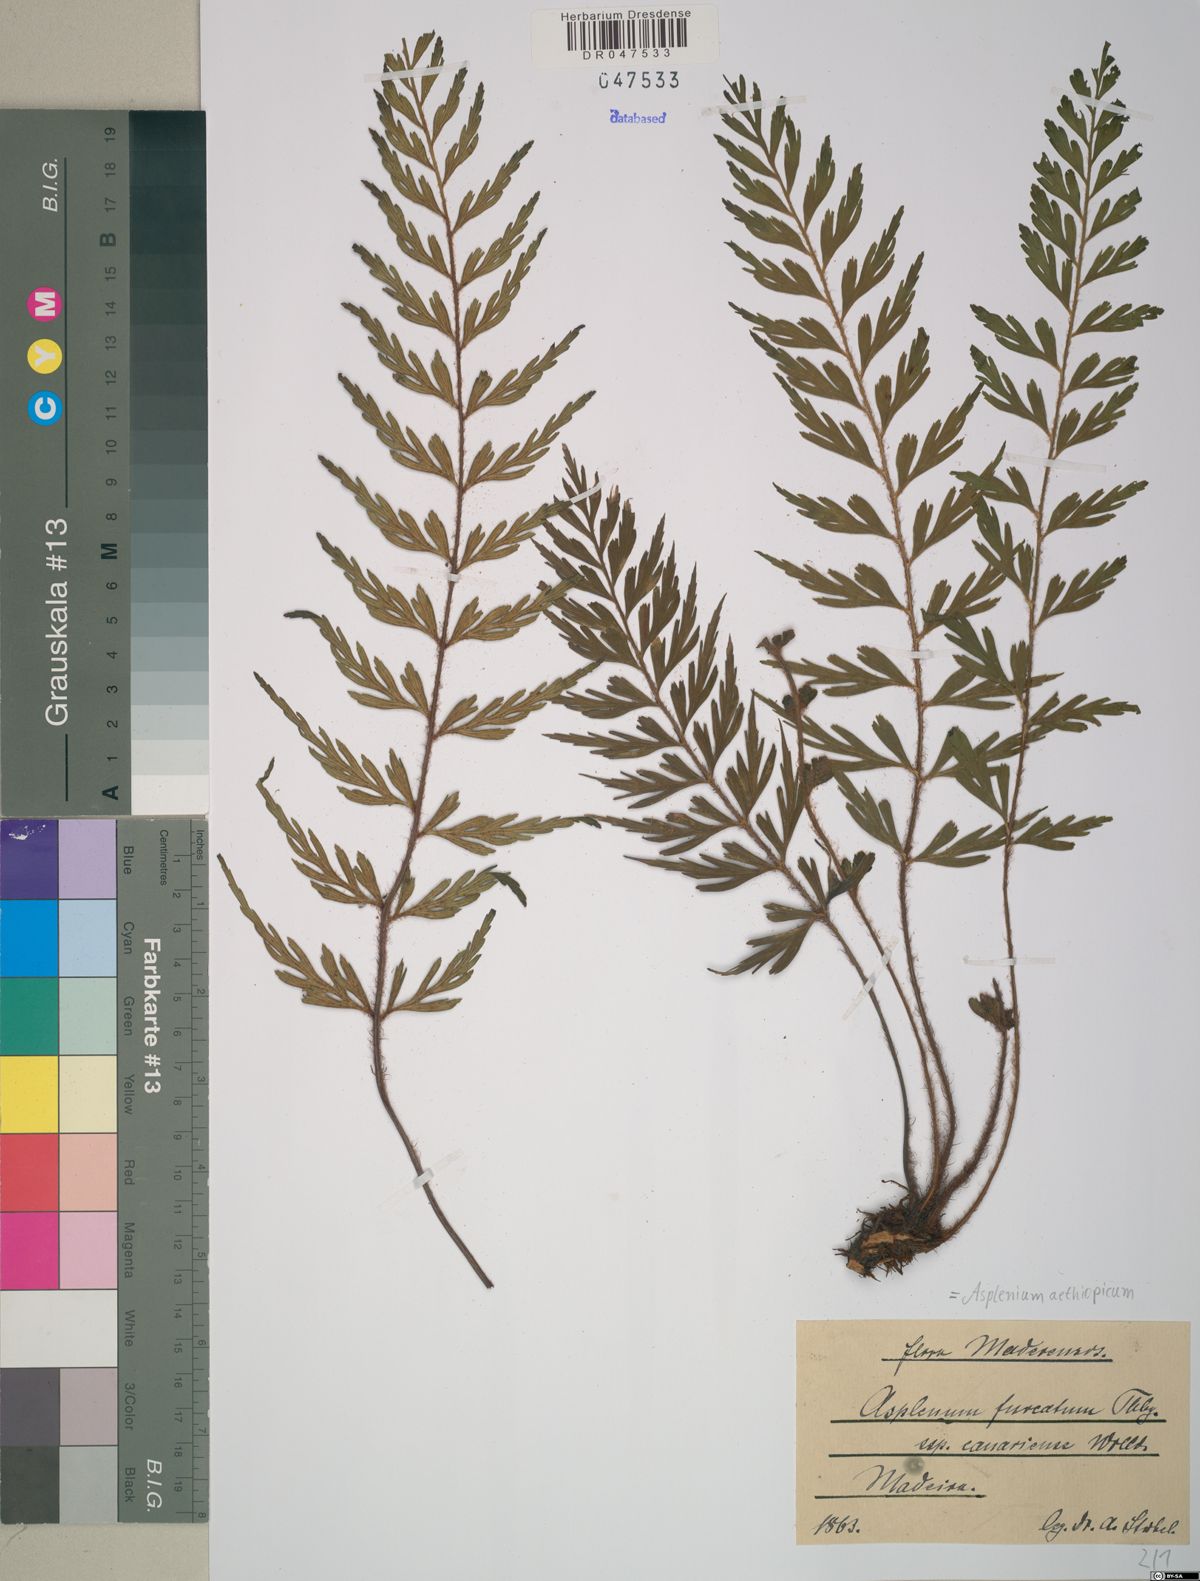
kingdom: Plantae
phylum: Tracheophyta
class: Polypodiopsida
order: Polypodiales
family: Aspleniaceae
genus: Asplenium
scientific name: Asplenium aethiopicum
